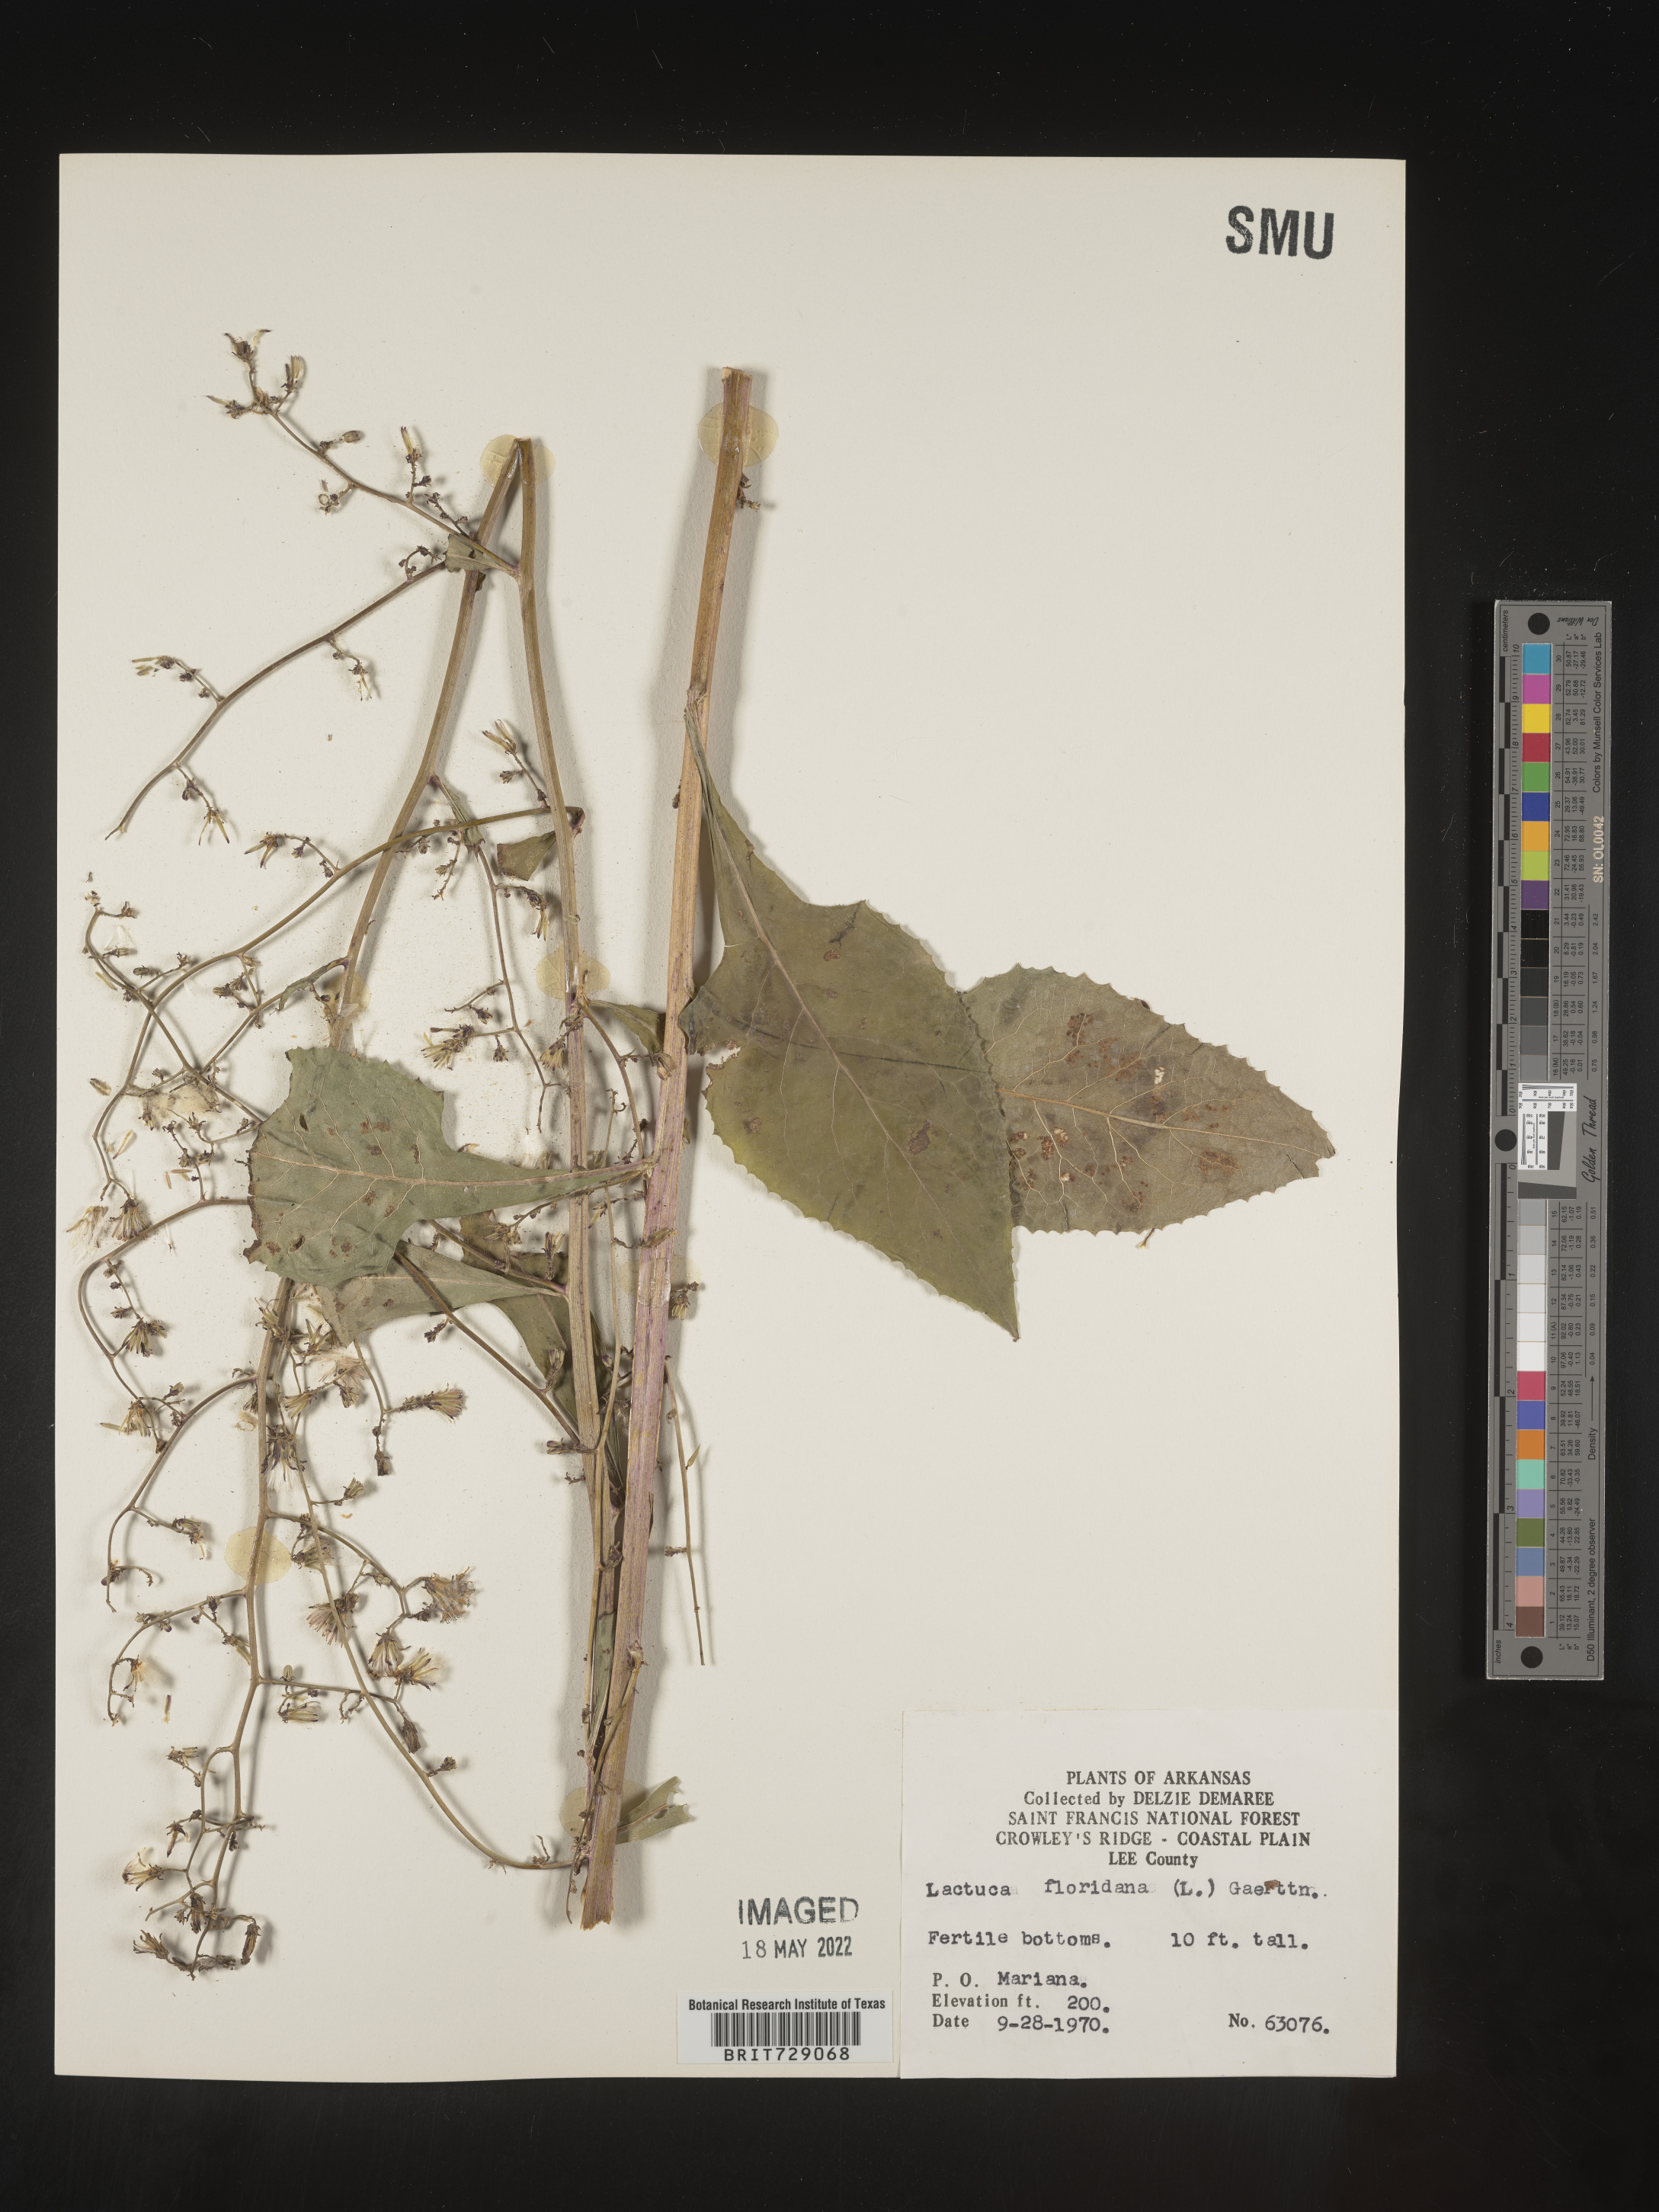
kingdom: Plantae
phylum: Tracheophyta
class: Magnoliopsida
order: Asterales
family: Asteraceae
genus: Lactuca
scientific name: Lactuca floridana
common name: Woodland lettuce
